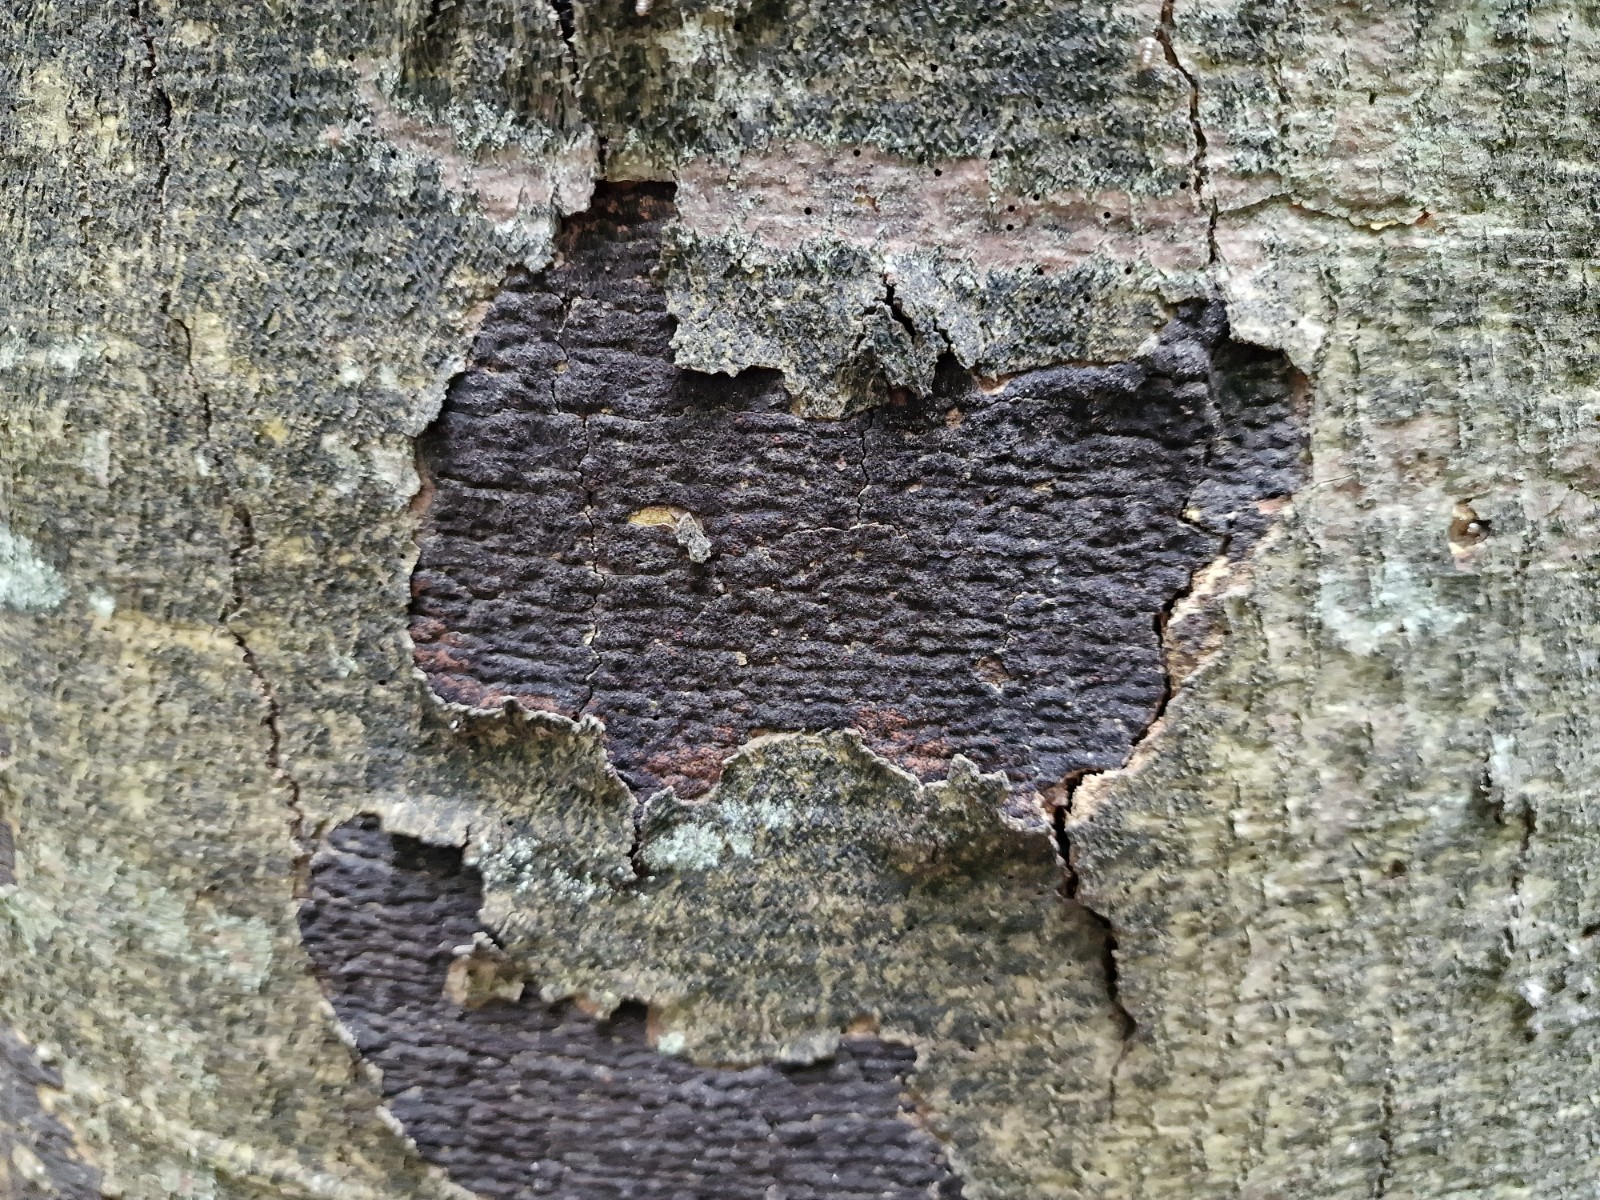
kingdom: Fungi
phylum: Ascomycota
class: Sordariomycetes
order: Xylariales
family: Diatrypaceae
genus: Eutypa
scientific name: Eutypa spinosa
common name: grov kulskorpe
